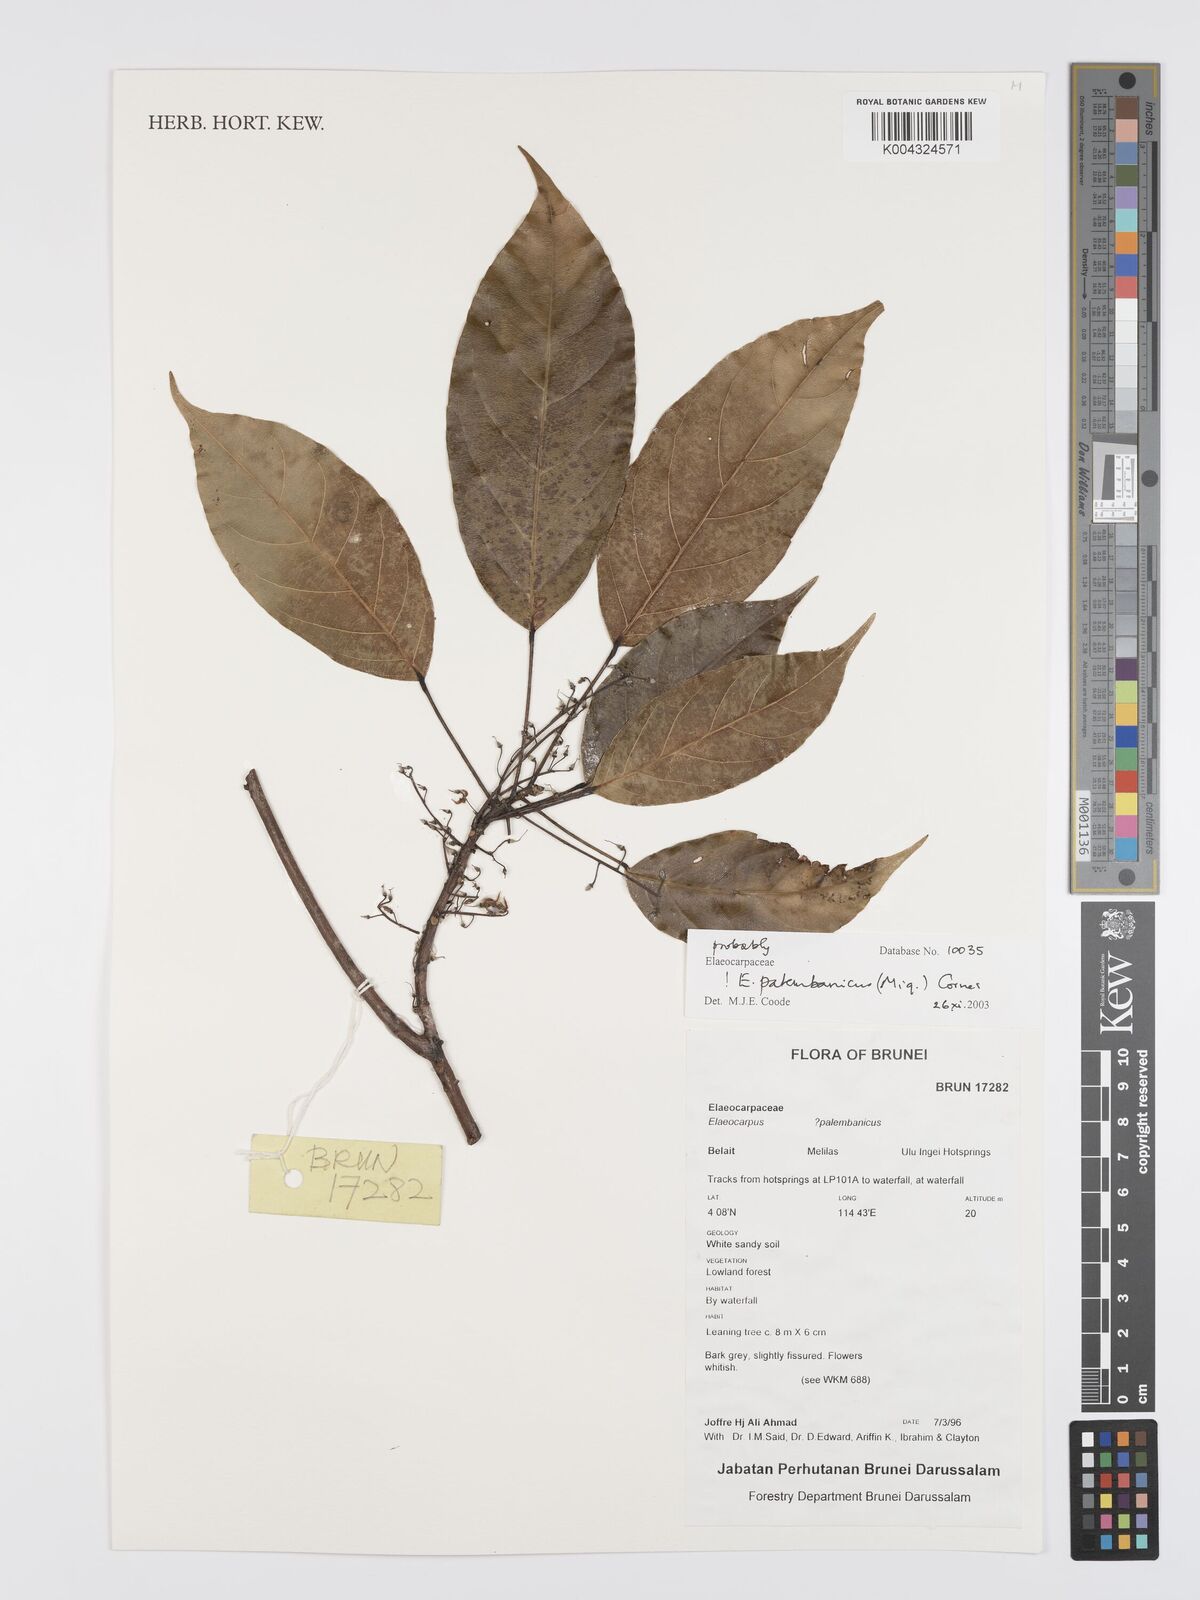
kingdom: Plantae
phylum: Tracheophyta
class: Magnoliopsida
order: Oxalidales
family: Elaeocarpaceae
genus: Elaeocarpus
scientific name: Elaeocarpus palembanicus
